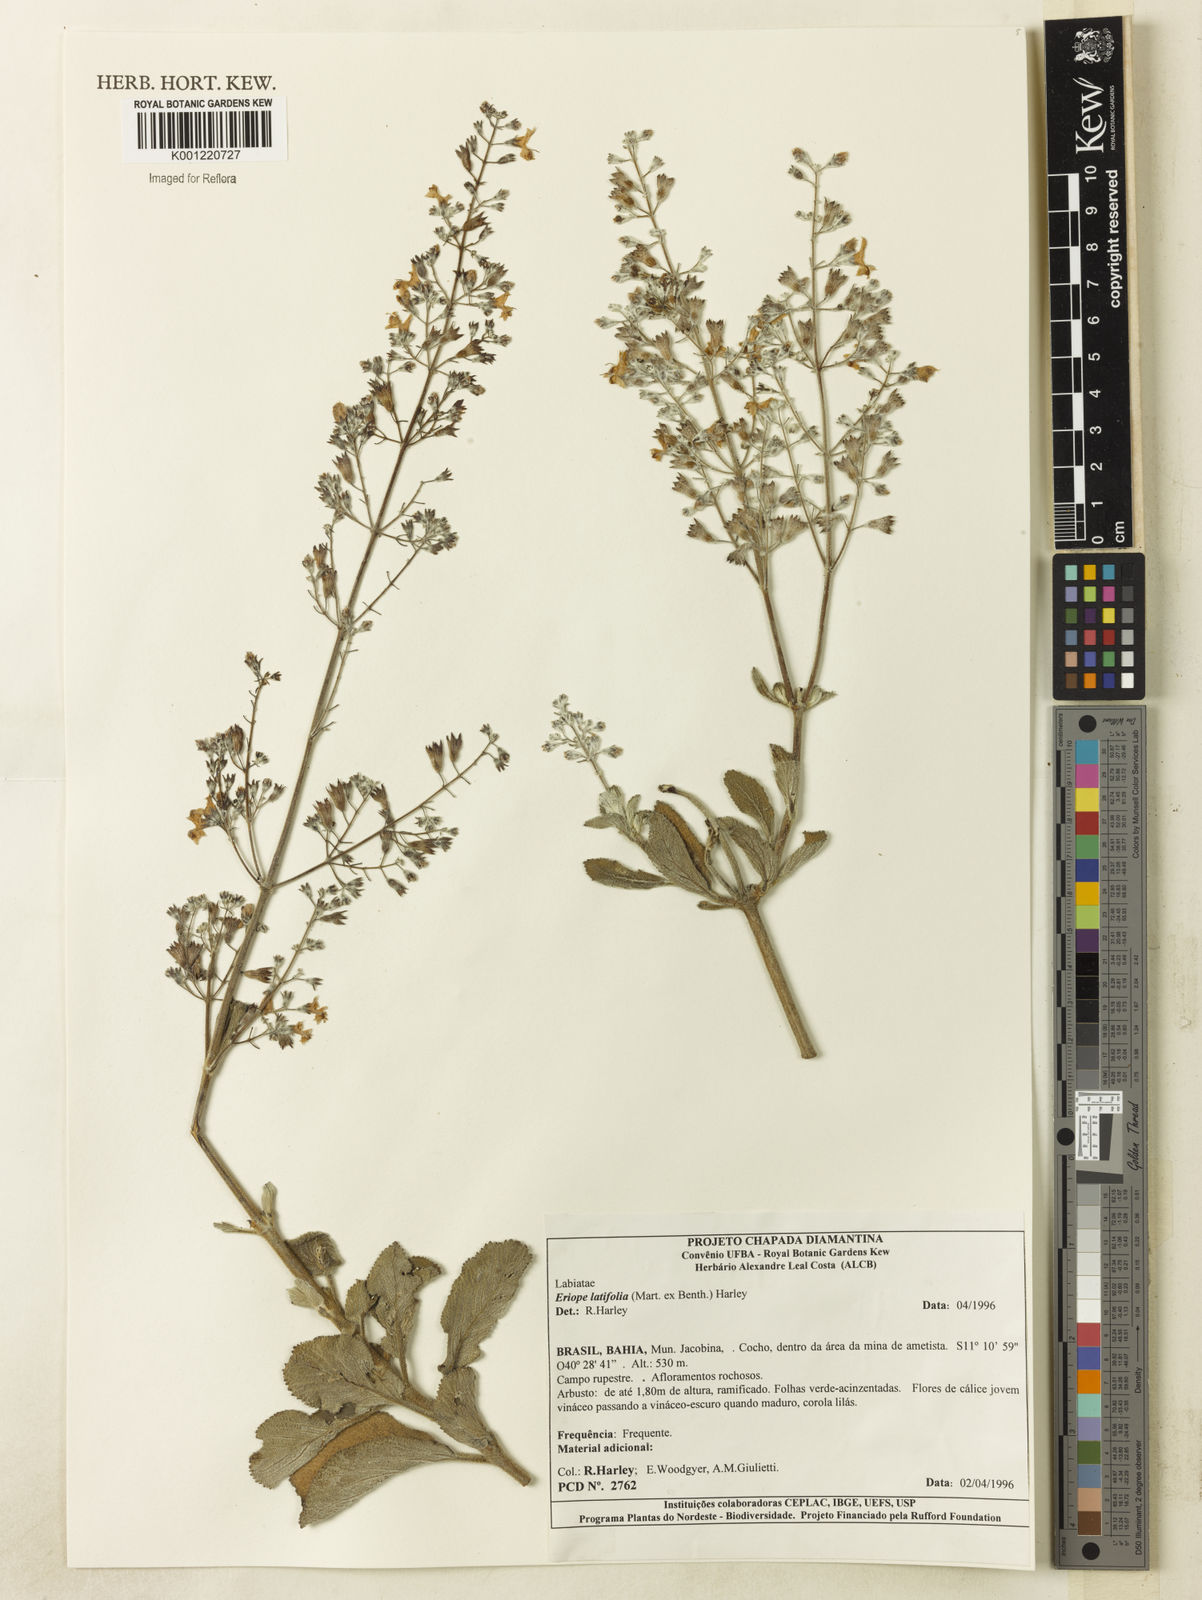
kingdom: Plantae
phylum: Tracheophyta
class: Magnoliopsida
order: Lamiales
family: Lamiaceae
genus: Eriope
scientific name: Eriope latifolia
